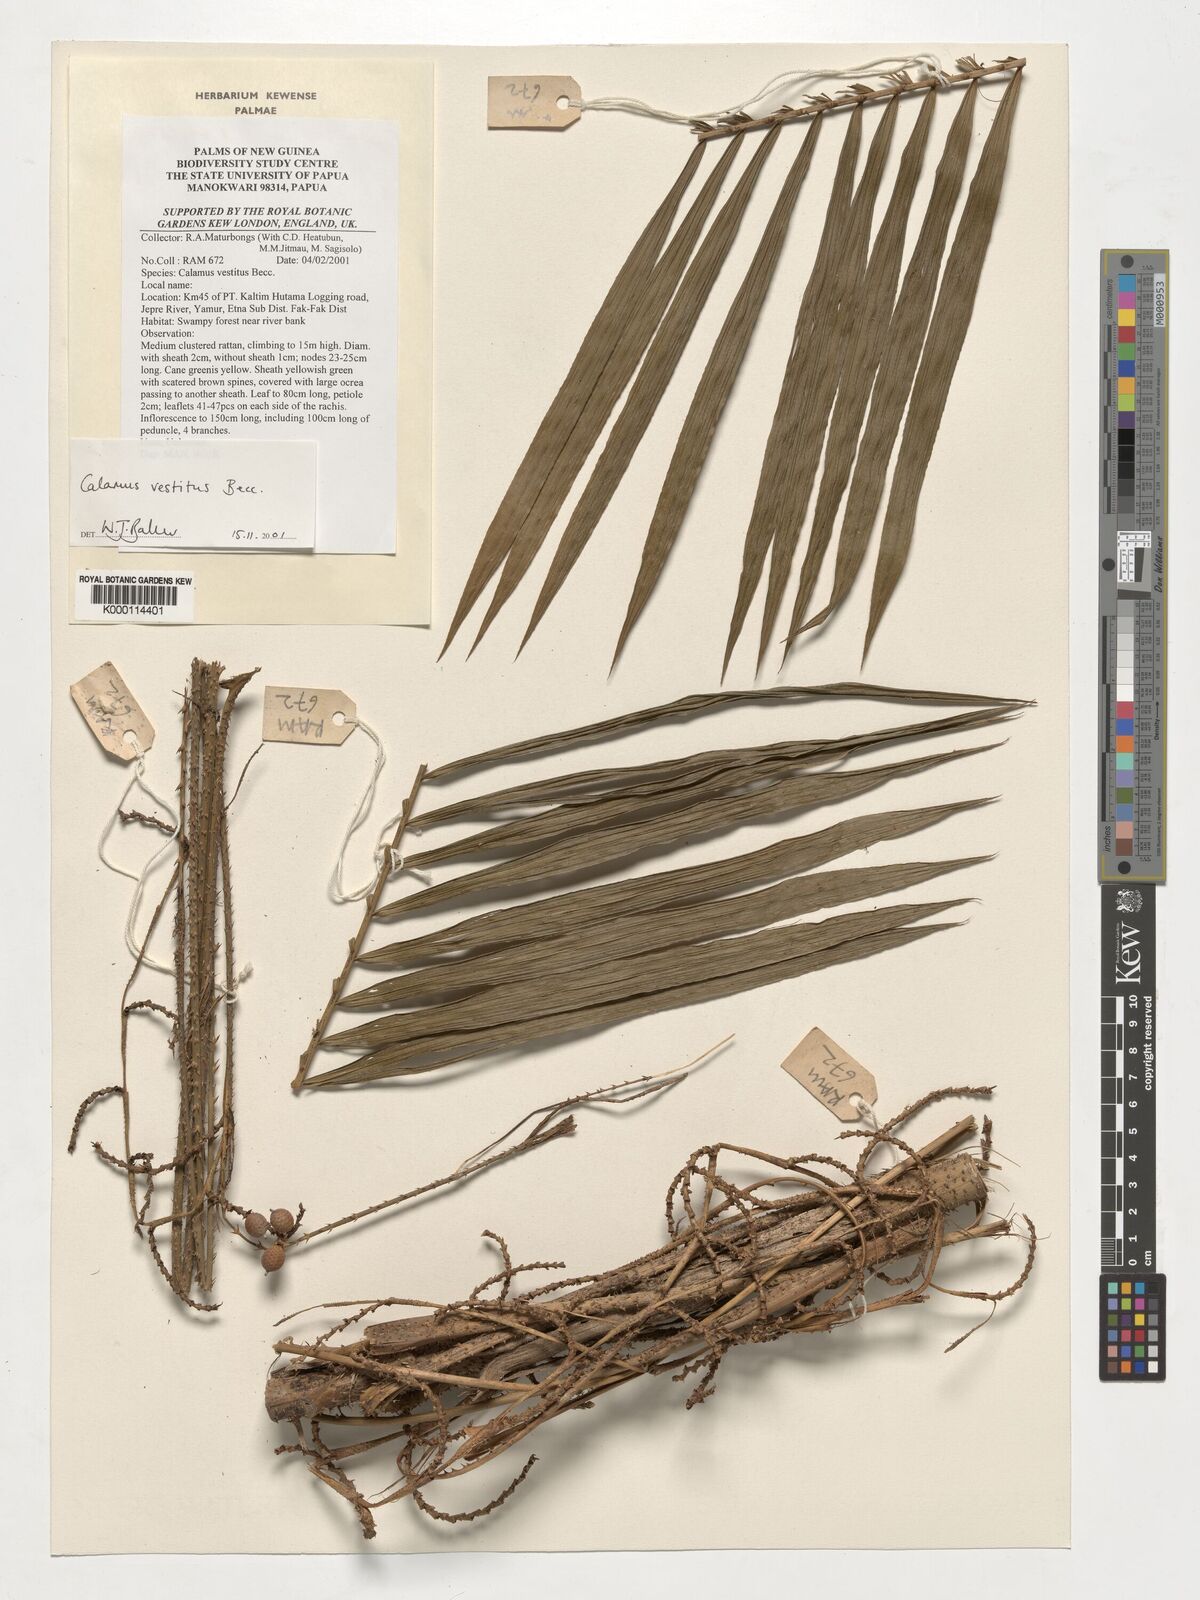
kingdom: Plantae
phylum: Tracheophyta
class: Liliopsida
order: Arecales
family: Arecaceae
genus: Calamus
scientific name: Calamus vestitus
